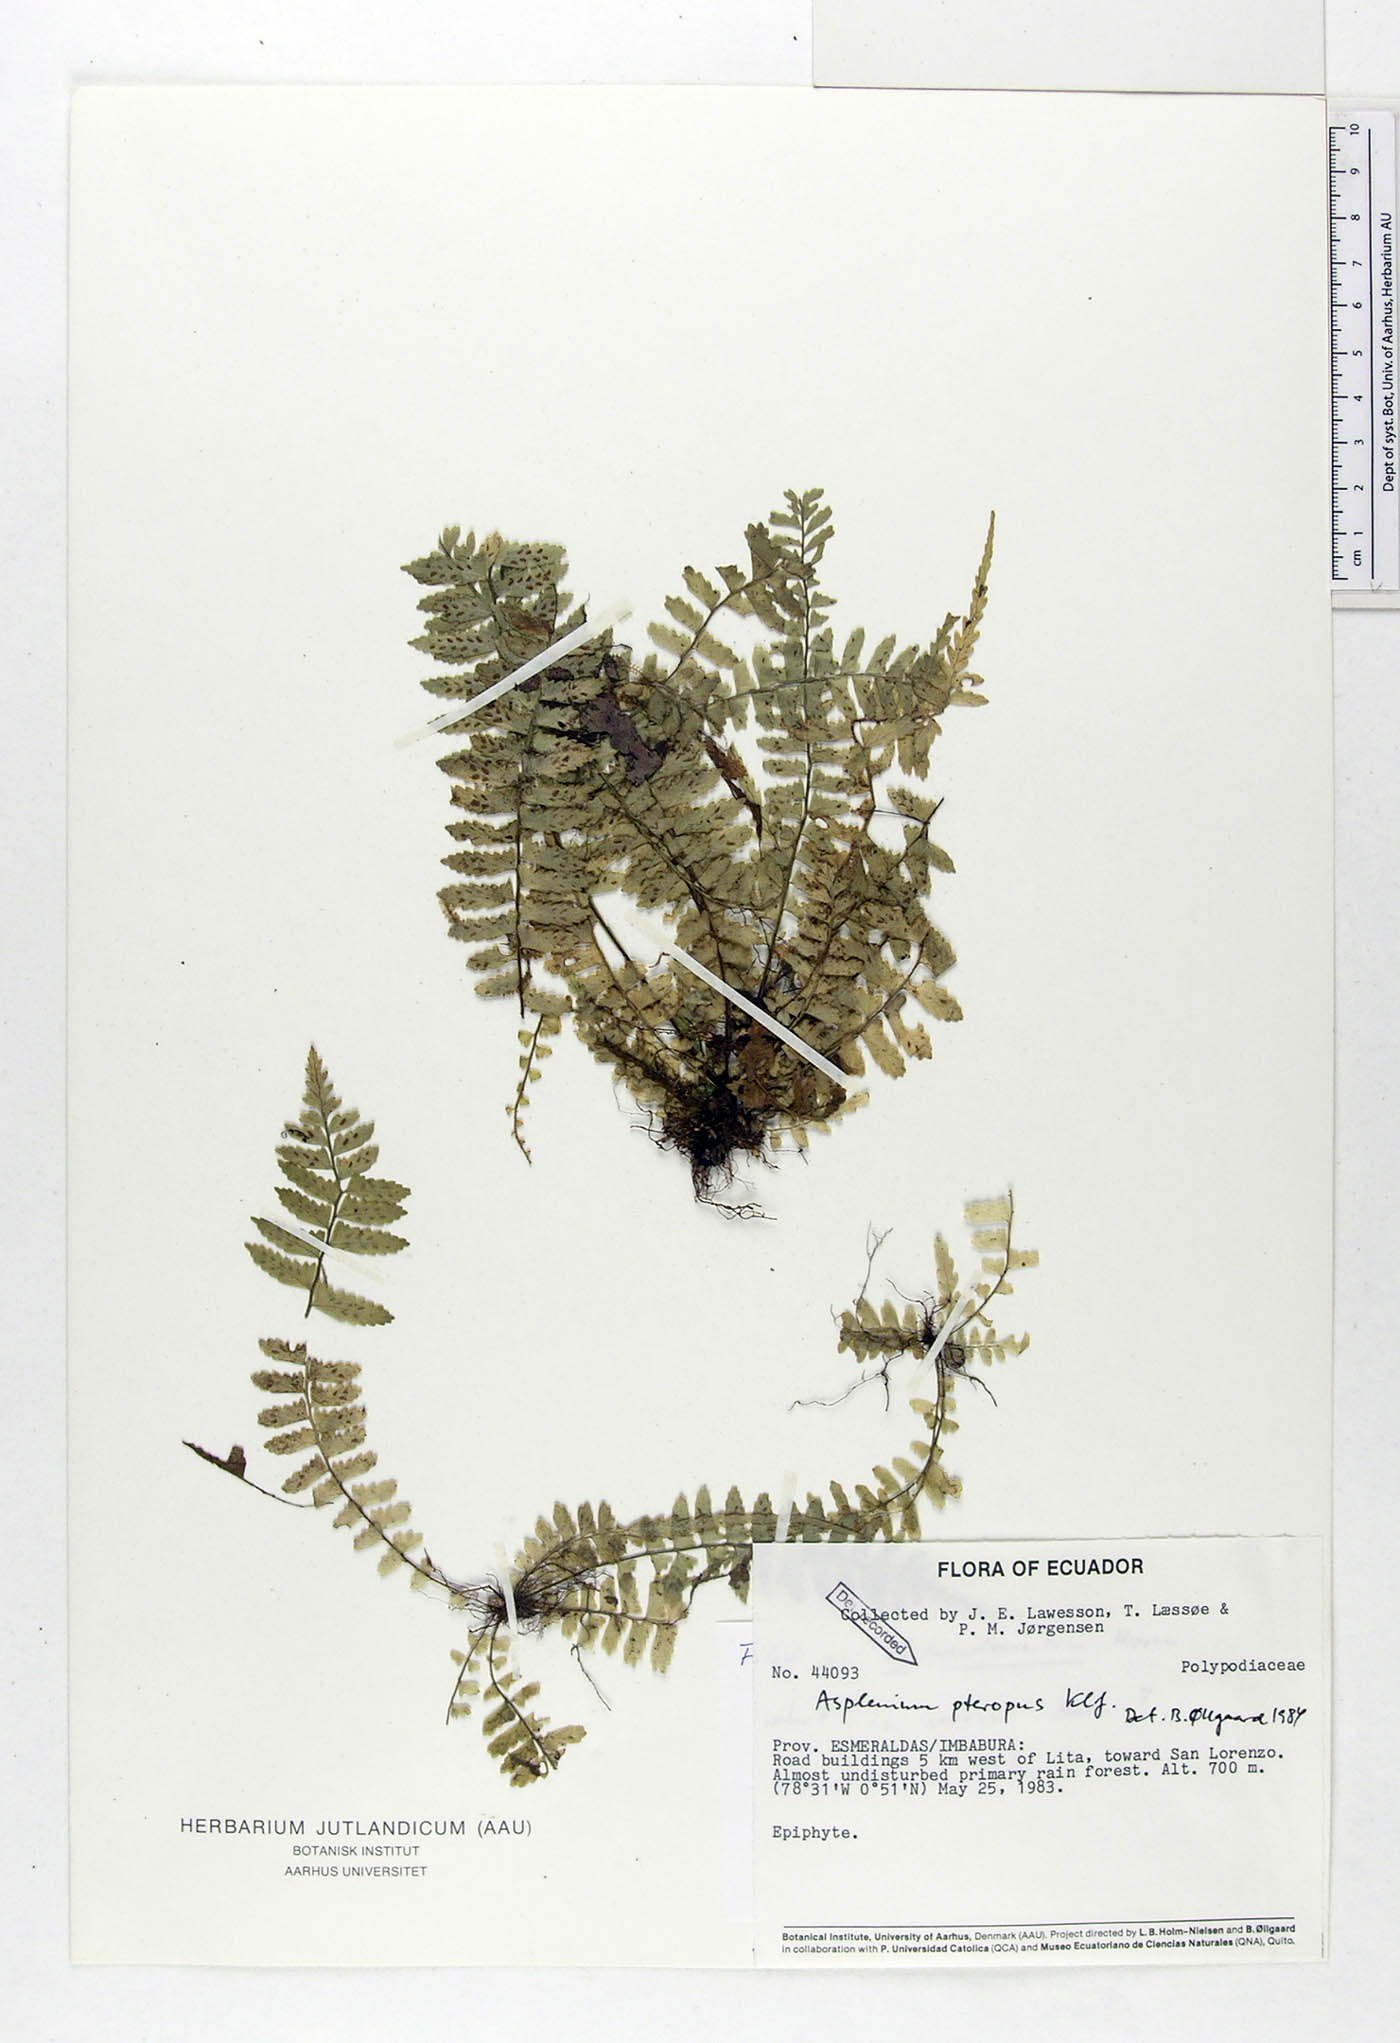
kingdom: Plantae
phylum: Tracheophyta
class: Polypodiopsida
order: Polypodiales
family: Aspleniaceae
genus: Asplenium
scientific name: Asplenium pteropus
